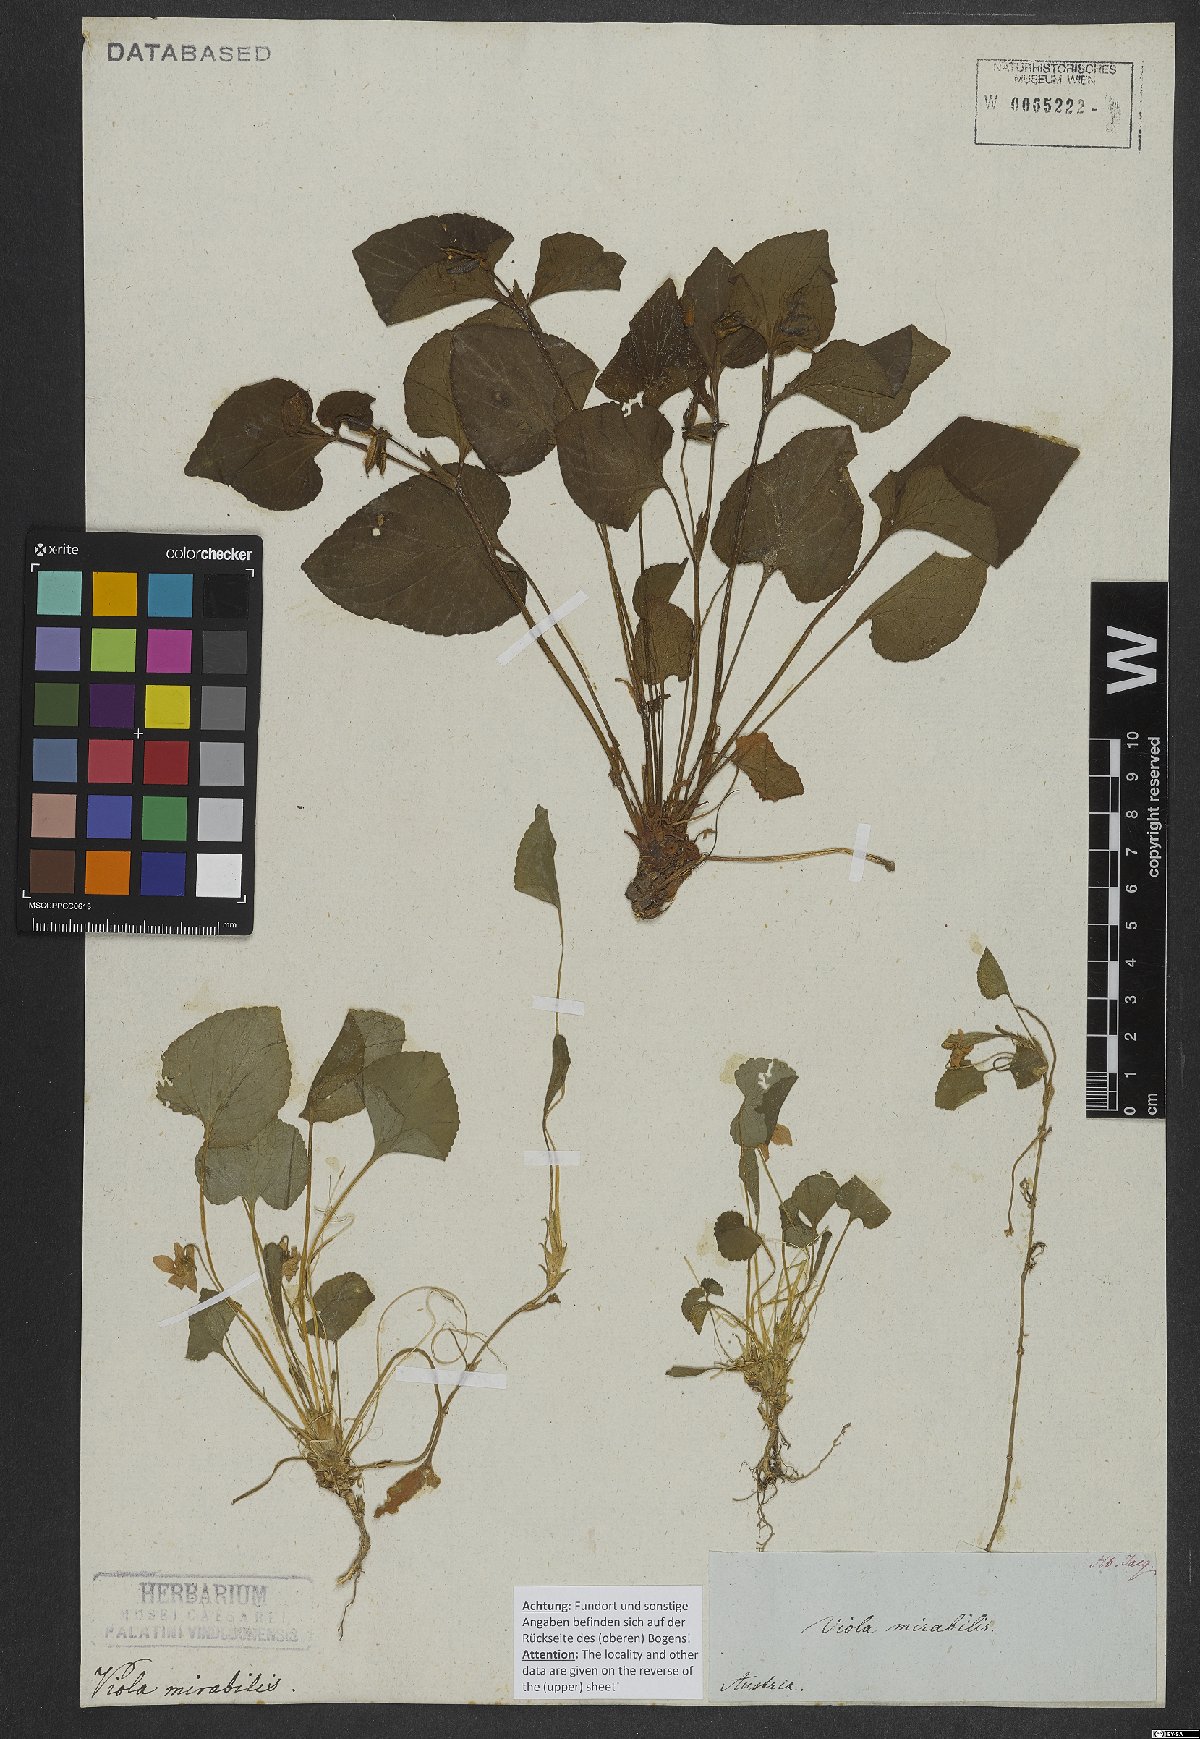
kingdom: Plantae
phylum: Tracheophyta
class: Magnoliopsida
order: Malpighiales
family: Violaceae
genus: Viola
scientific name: Viola mirabilis
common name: Wonder violet
